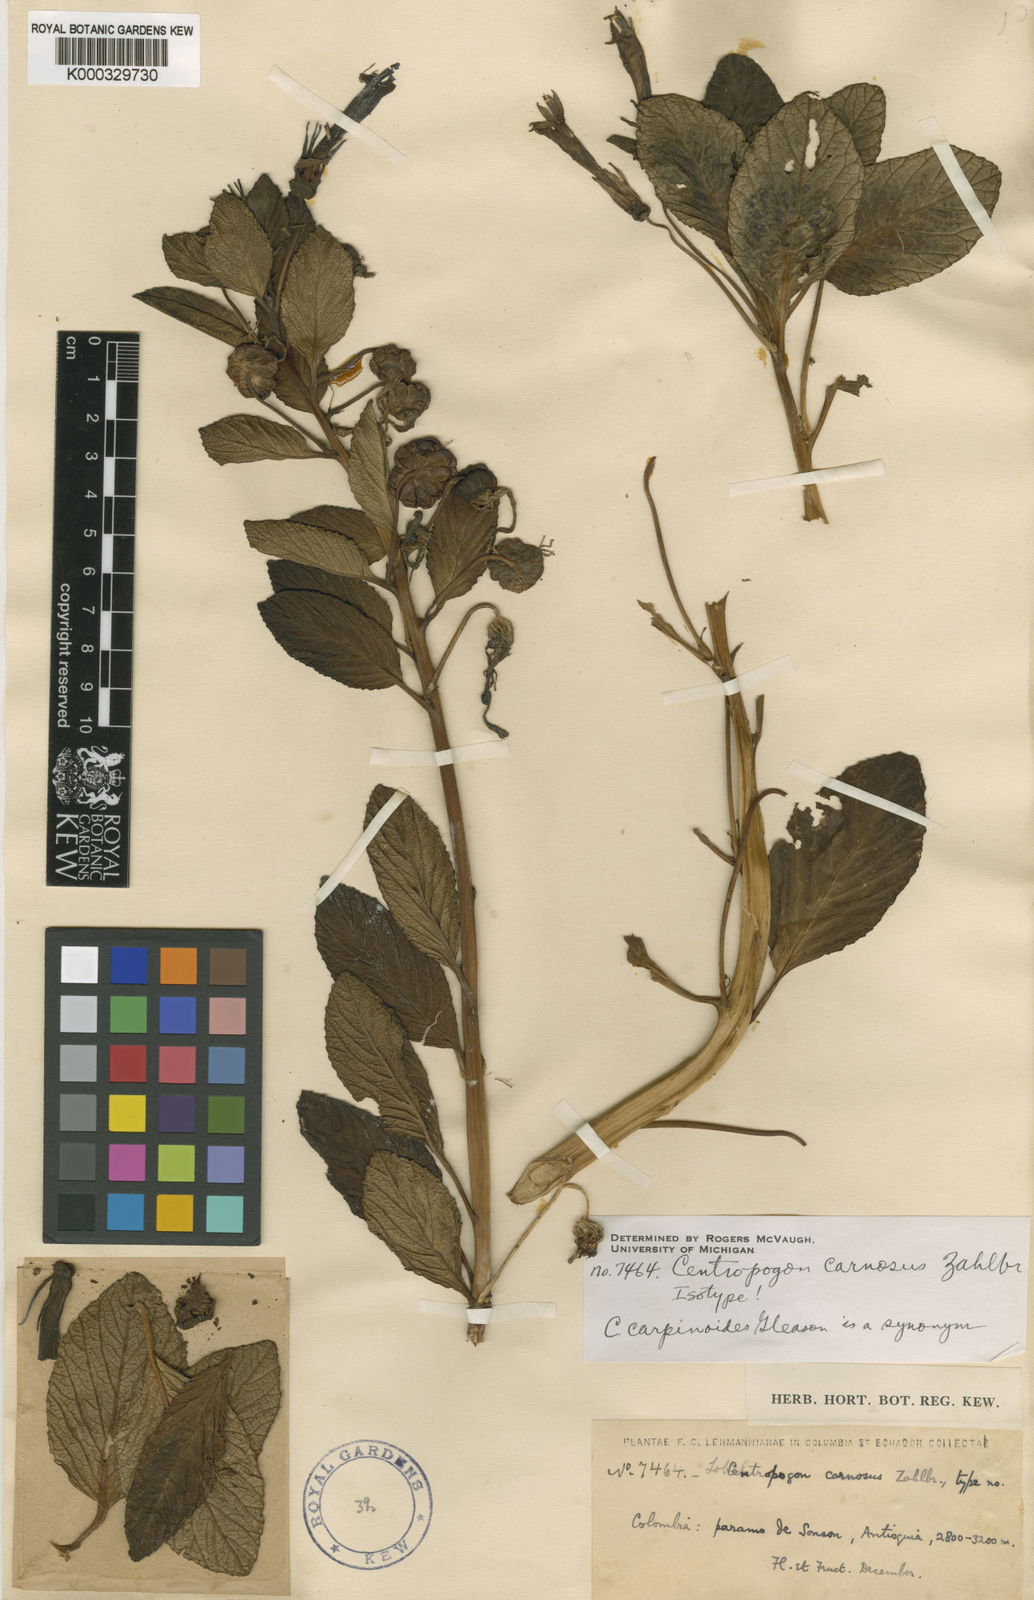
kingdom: Plantae
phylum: Tracheophyta
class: Magnoliopsida
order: Asterales
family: Campanulaceae
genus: Centropogon
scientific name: Centropogon carnosus
